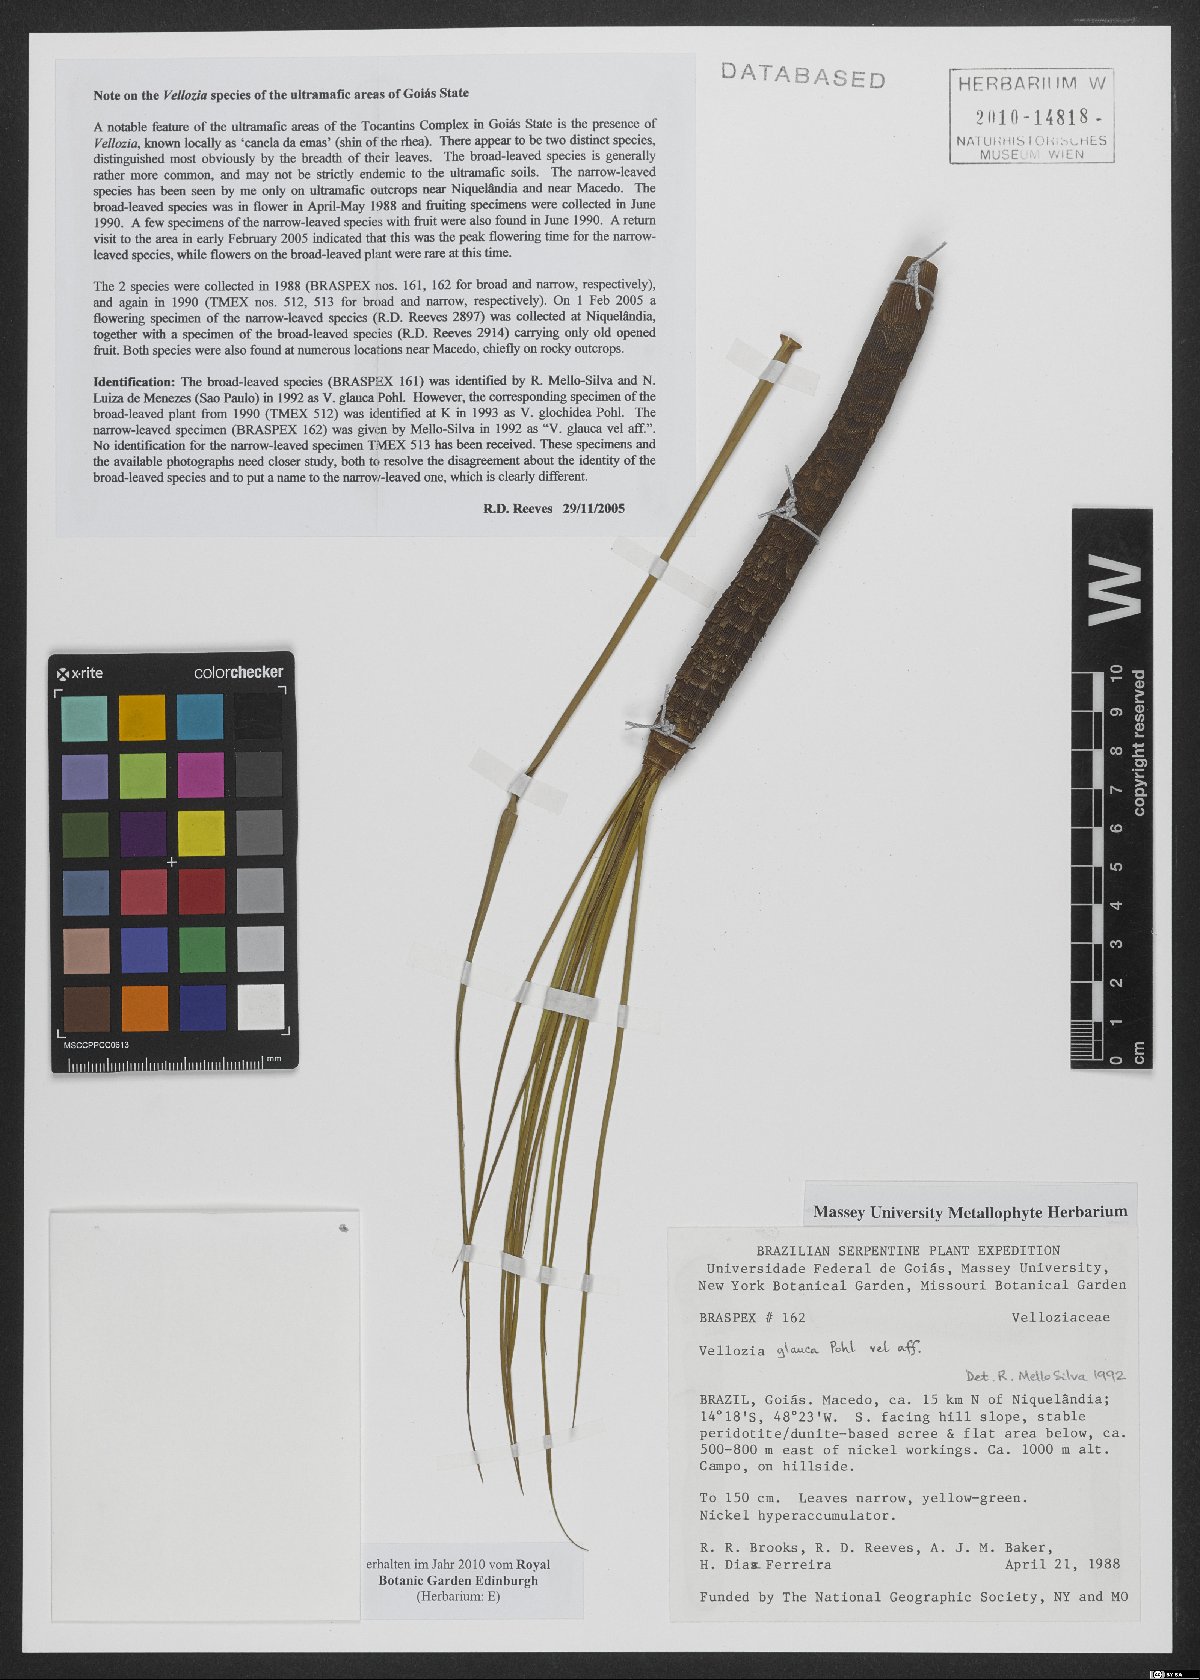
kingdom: Plantae
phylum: Tracheophyta
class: Liliopsida
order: Pandanales
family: Velloziaceae
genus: Vellozia
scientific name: Vellozia glauca
